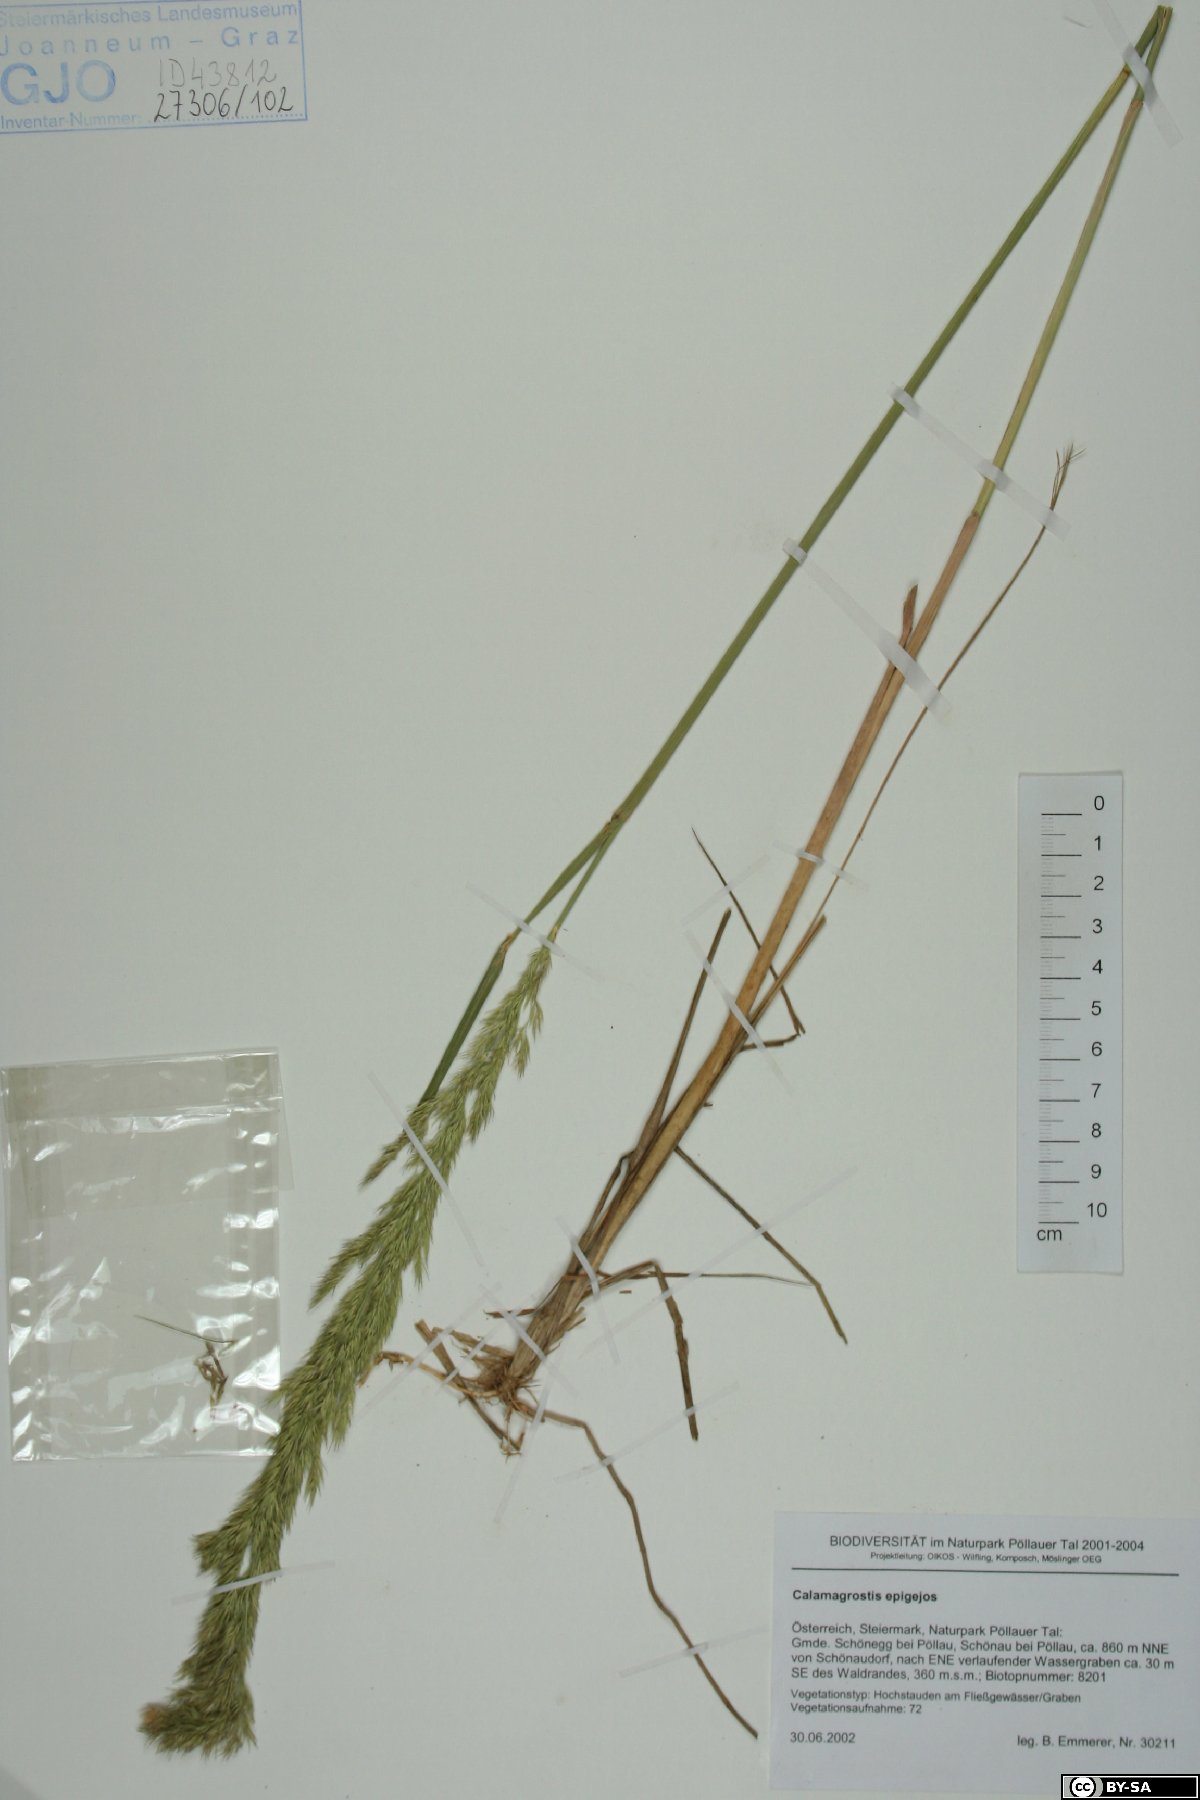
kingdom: Plantae
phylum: Tracheophyta
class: Liliopsida
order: Poales
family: Poaceae
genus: Calamagrostis
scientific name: Calamagrostis epigejos
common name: Wood small-reed
